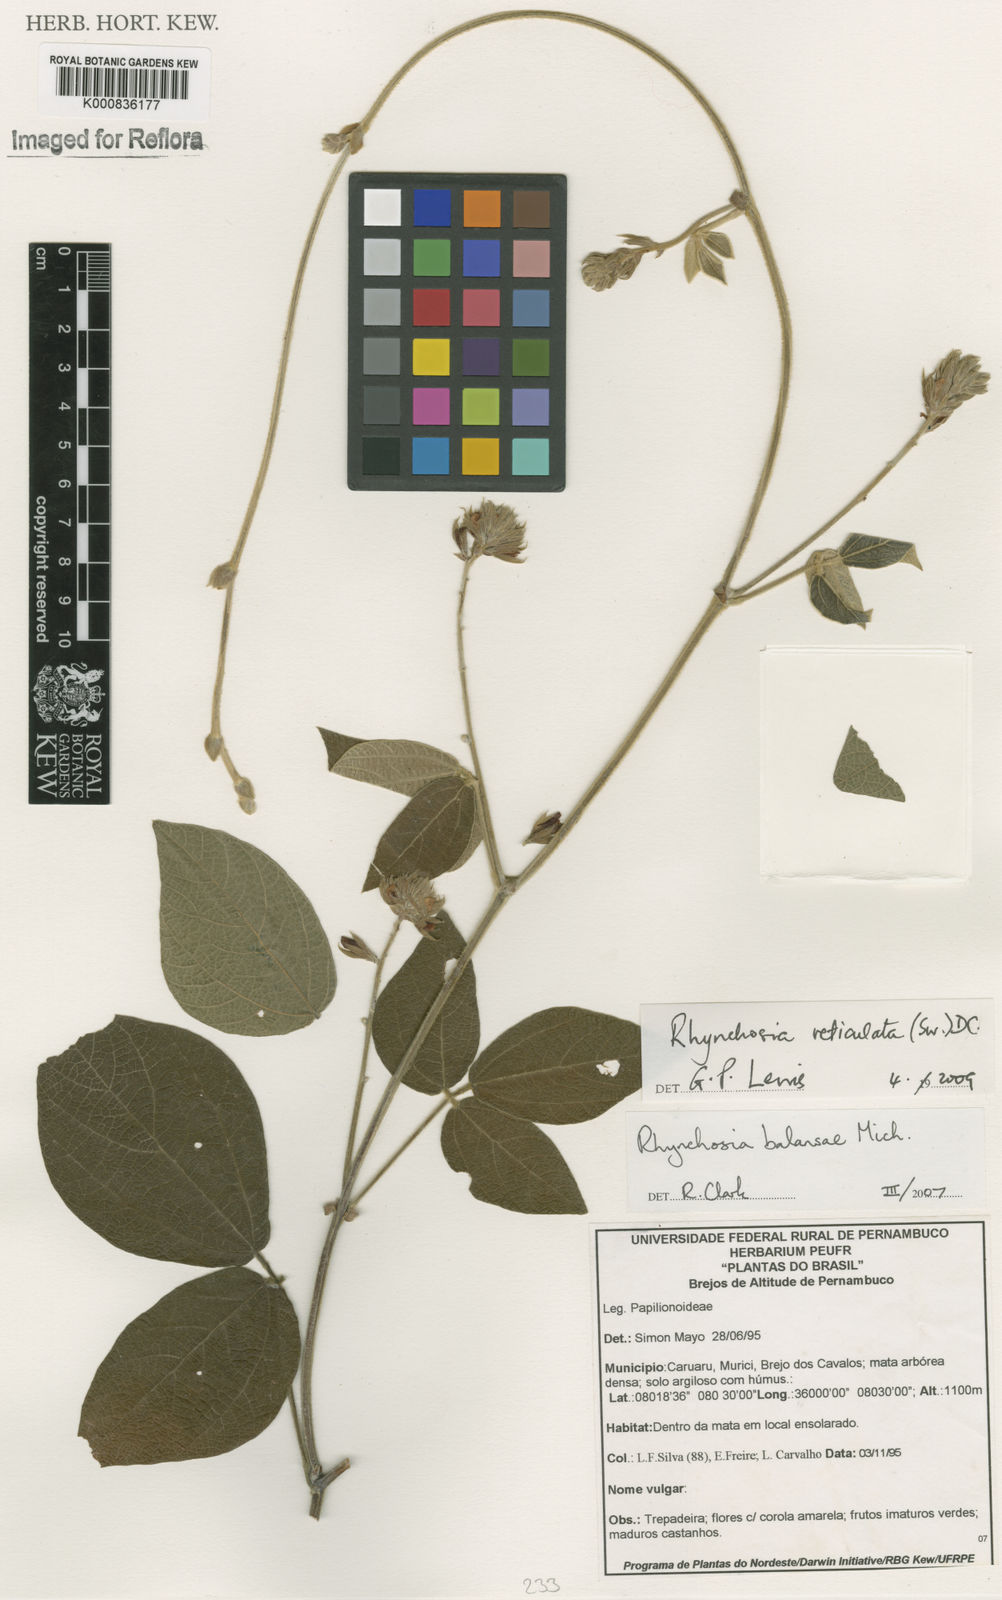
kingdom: Plantae
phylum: Tracheophyta
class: Magnoliopsida
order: Fabales
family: Fabaceae
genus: Rhynchosia
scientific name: Rhynchosia reticulata
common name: Pea withe
